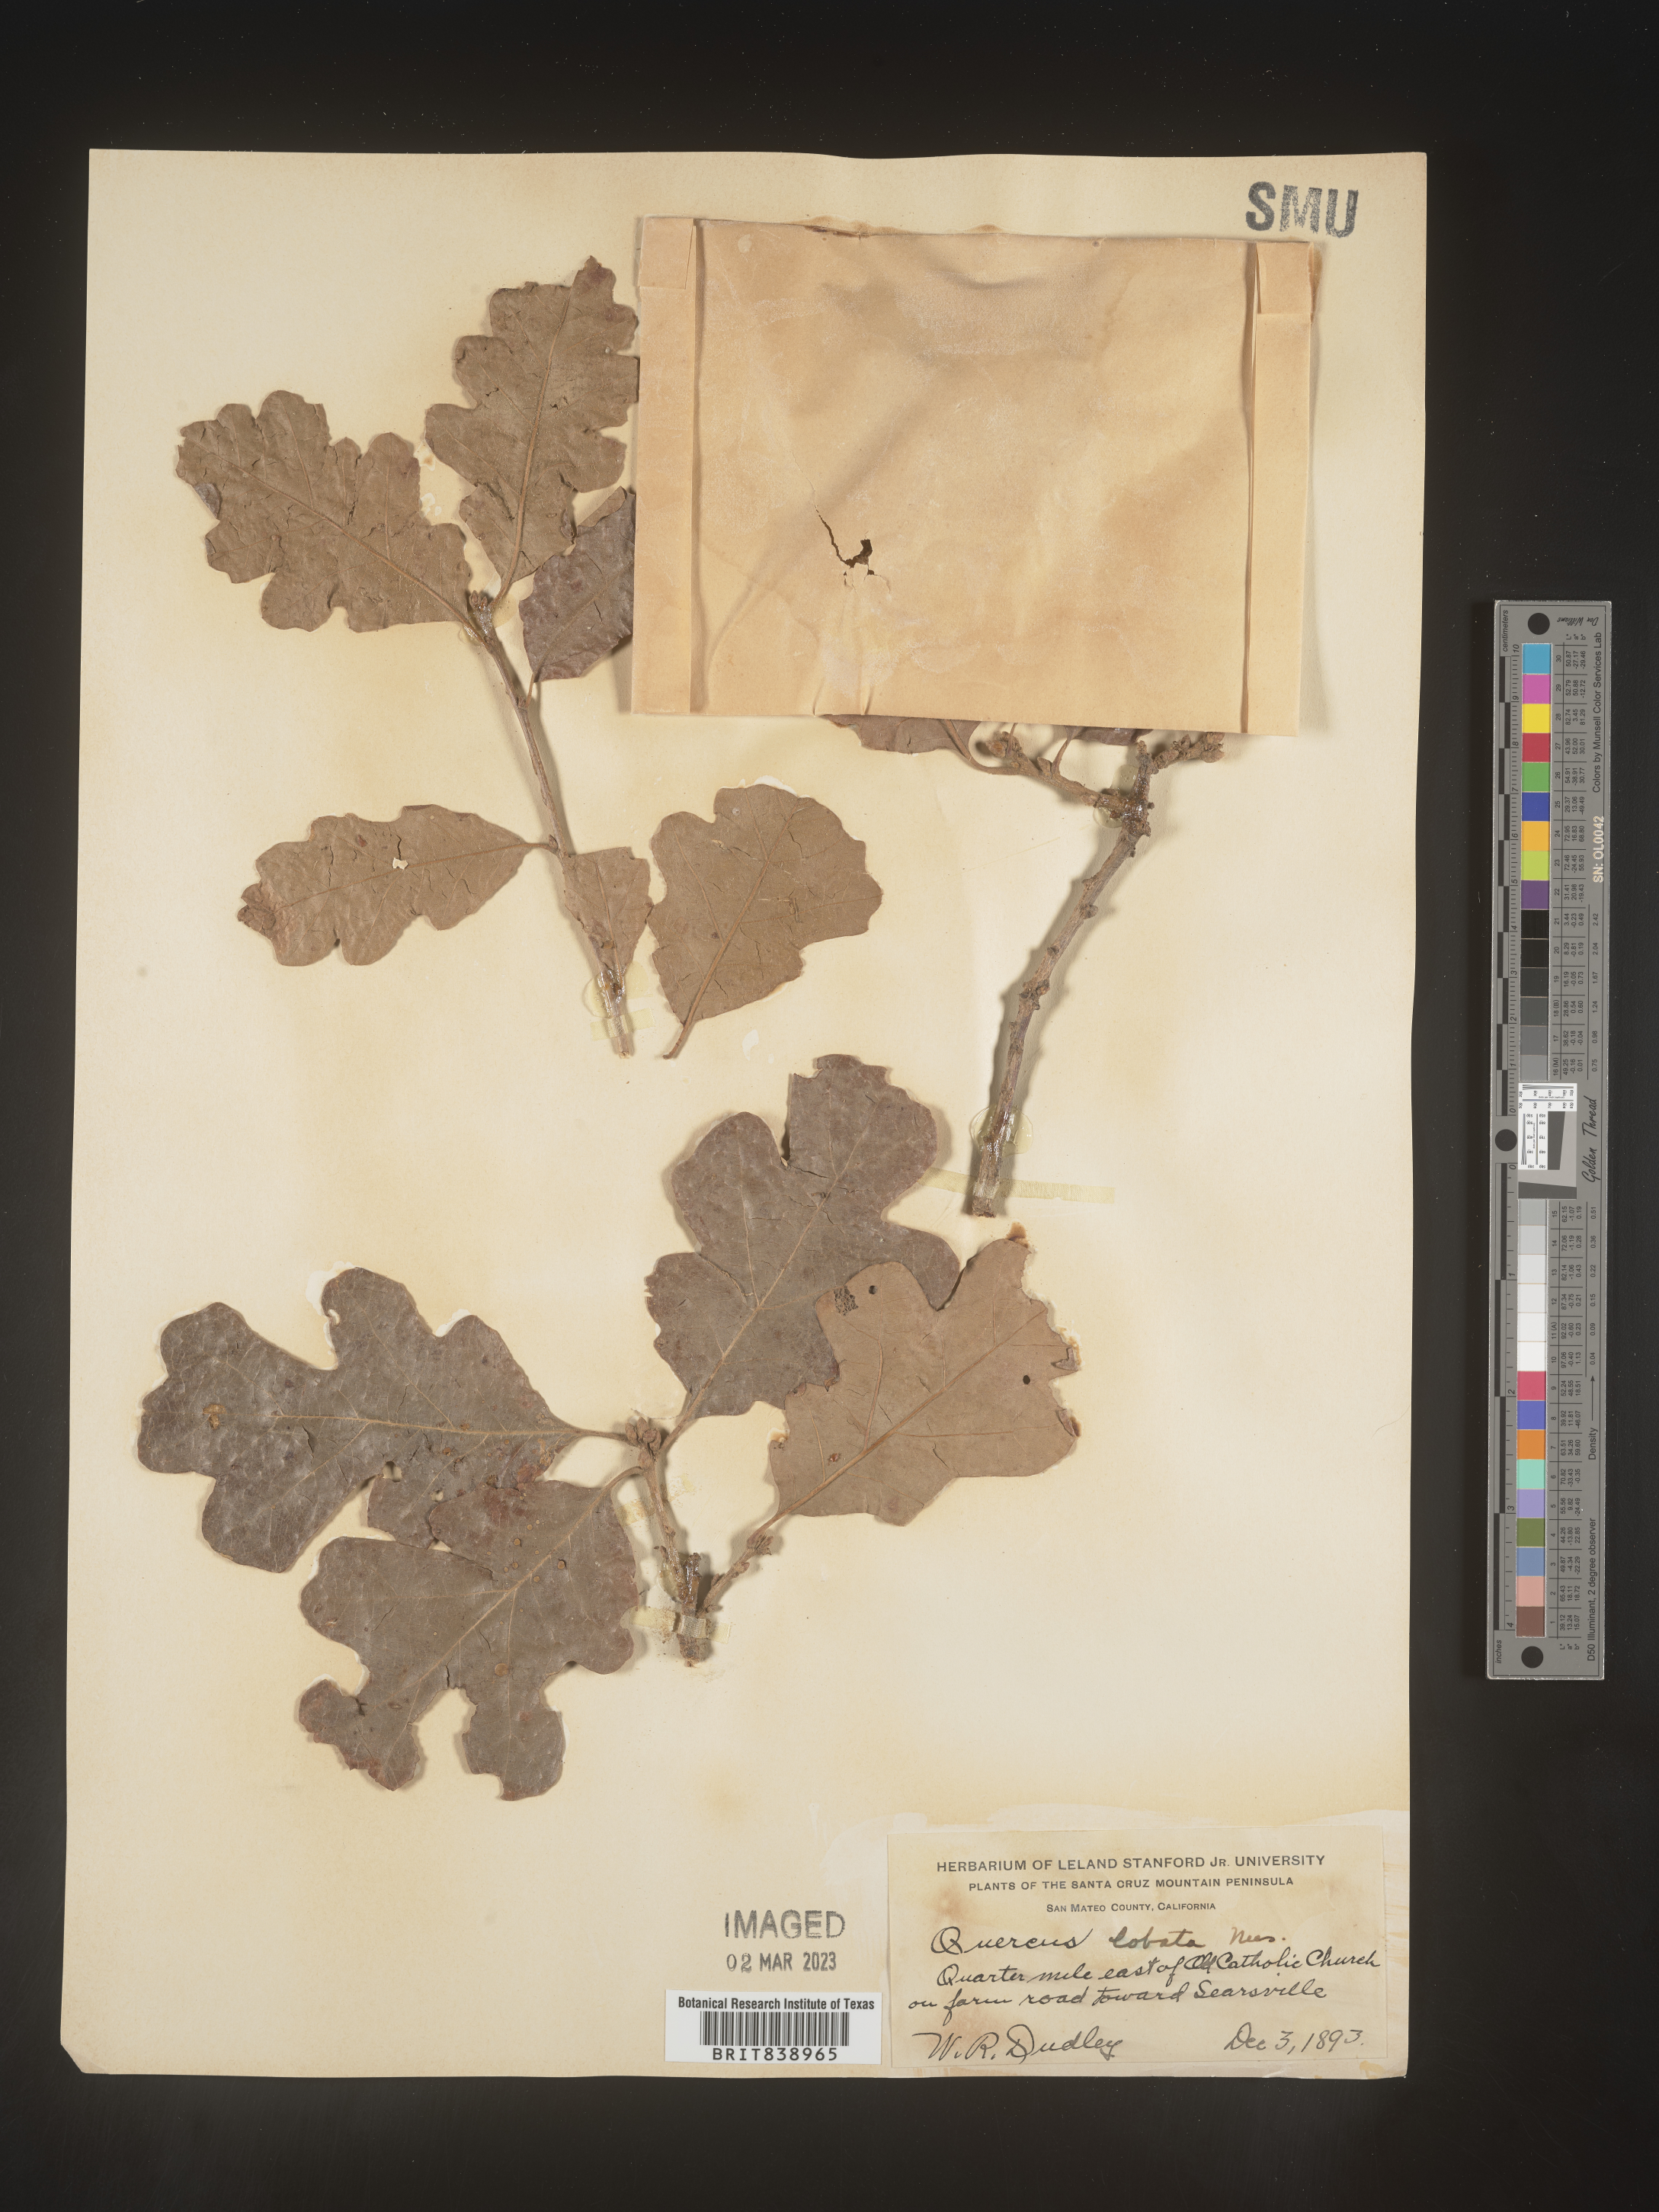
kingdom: Plantae
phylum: Tracheophyta
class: Magnoliopsida
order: Fagales
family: Fagaceae
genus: Quercus
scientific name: Quercus
